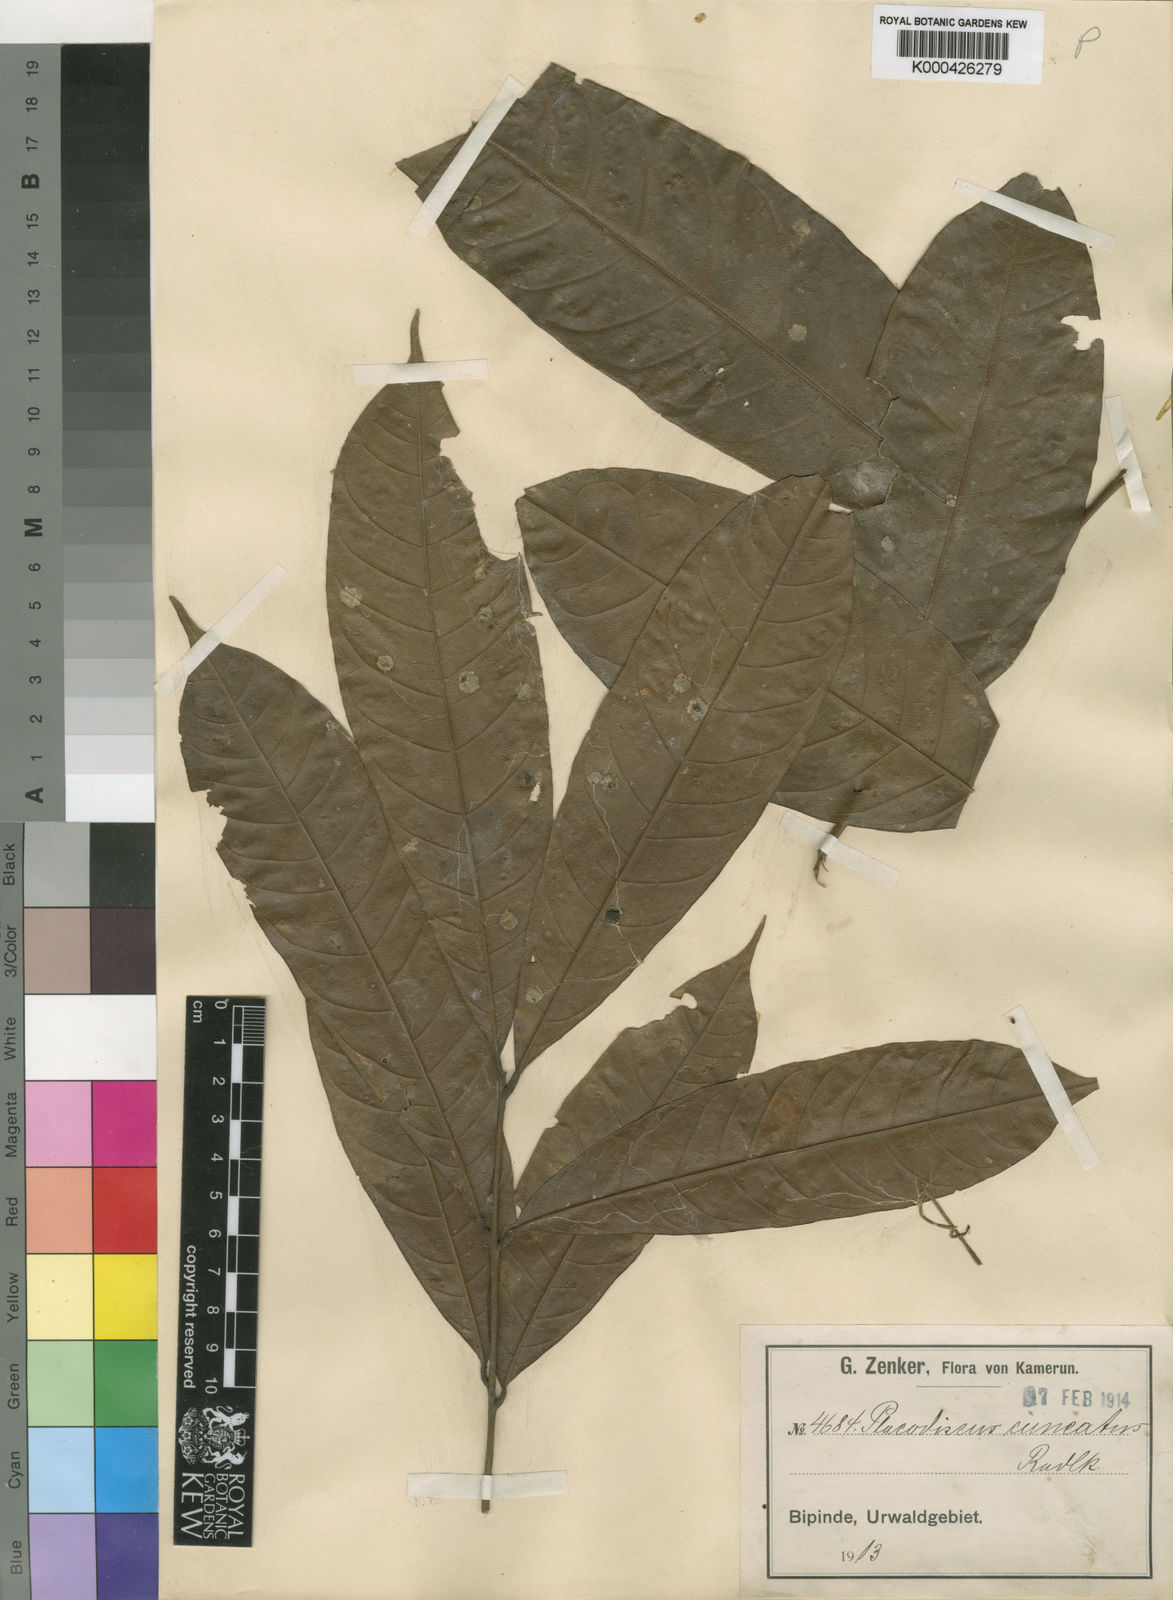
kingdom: Plantae
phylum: Tracheophyta
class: Magnoliopsida
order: Sapindales
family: Sapindaceae
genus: Placodiscus
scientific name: Placodiscus
